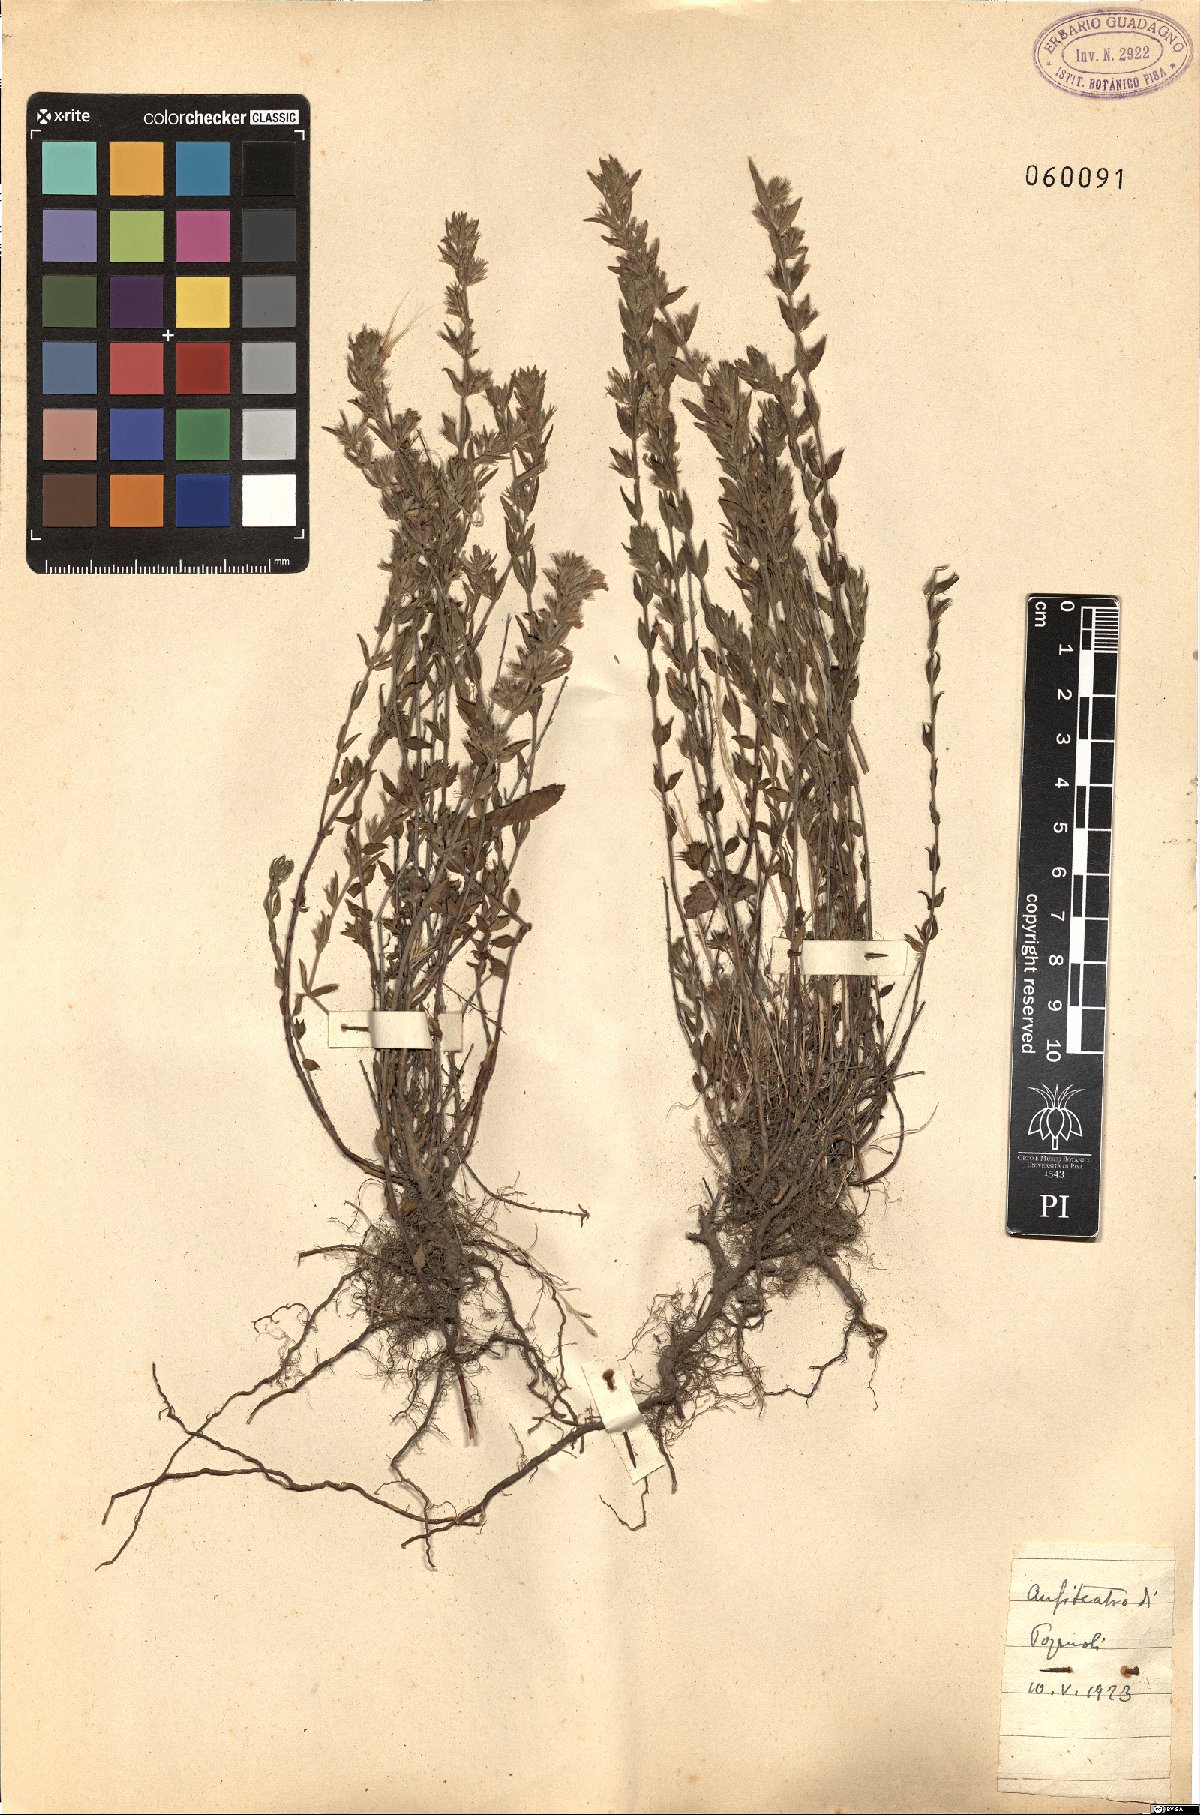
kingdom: Plantae
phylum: Tracheophyta
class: Magnoliopsida
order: Lamiales
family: Lamiaceae
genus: Micromeria
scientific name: Micromeria
